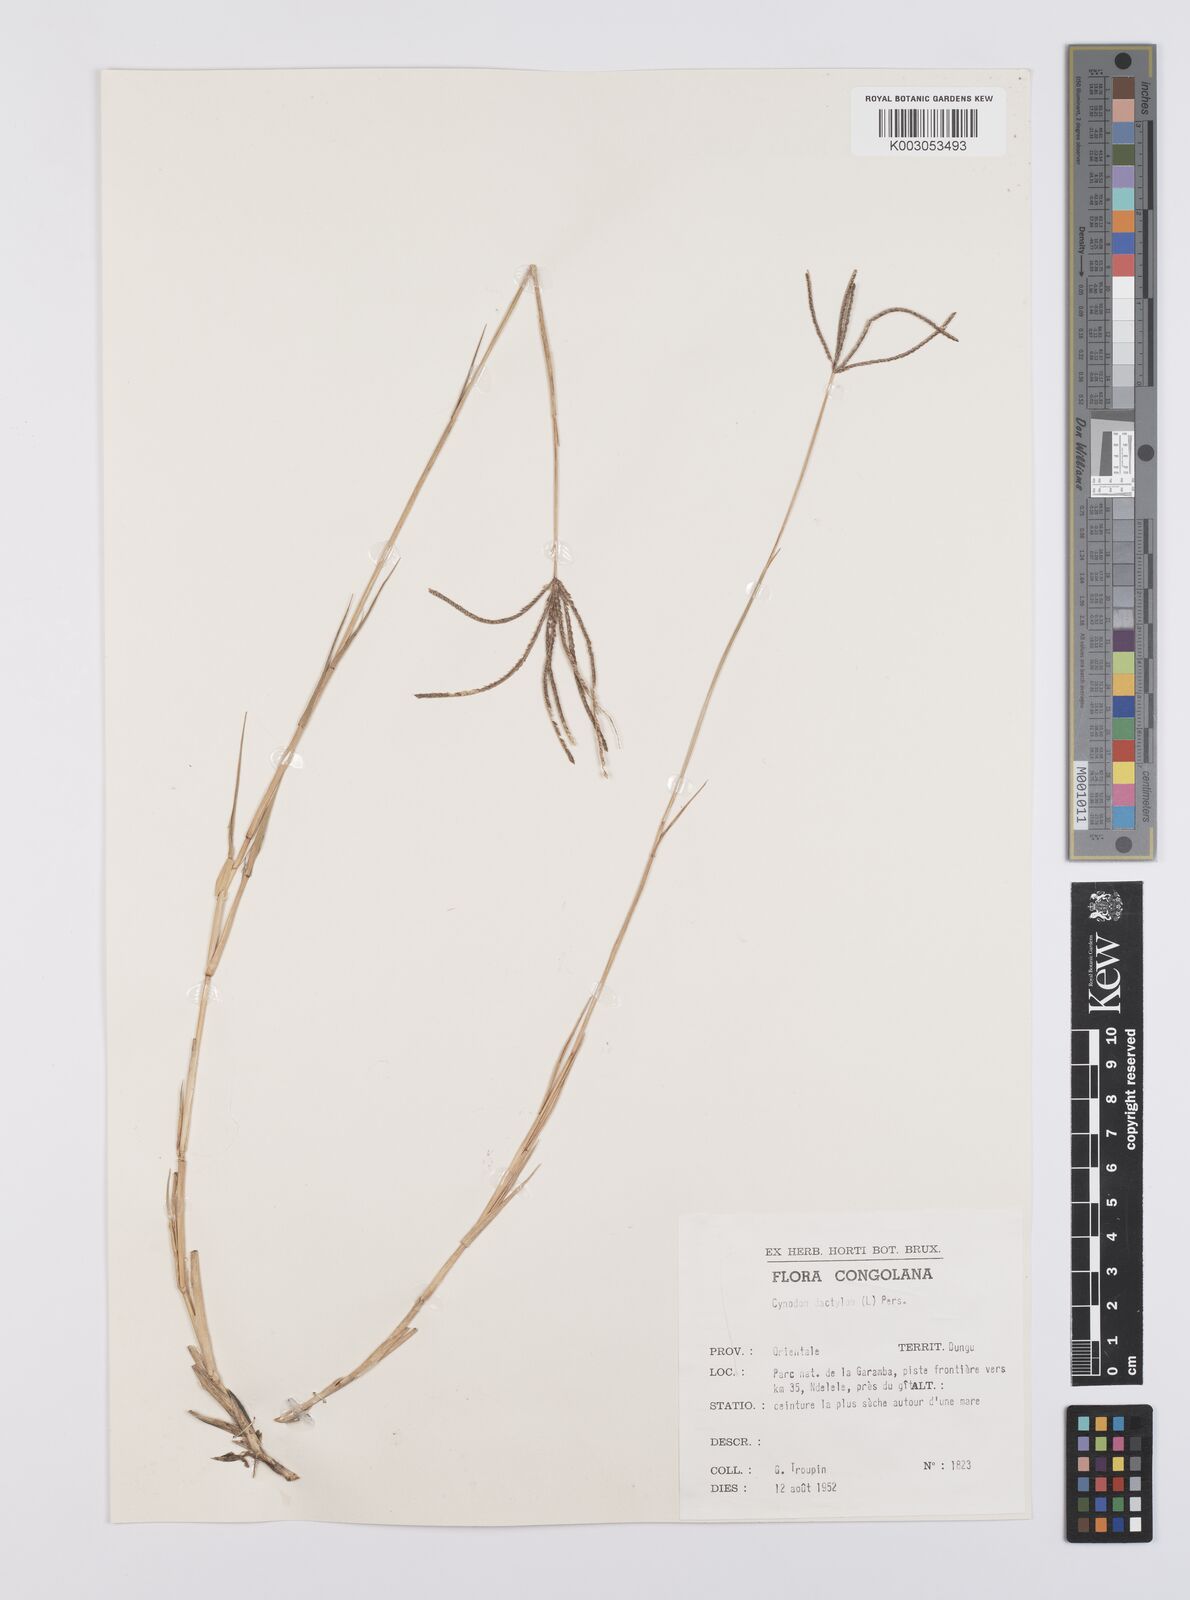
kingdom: Plantae
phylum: Tracheophyta
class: Liliopsida
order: Poales
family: Poaceae
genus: Cynodon
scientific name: Cynodon nlemfuensis
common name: African bermudagrass
